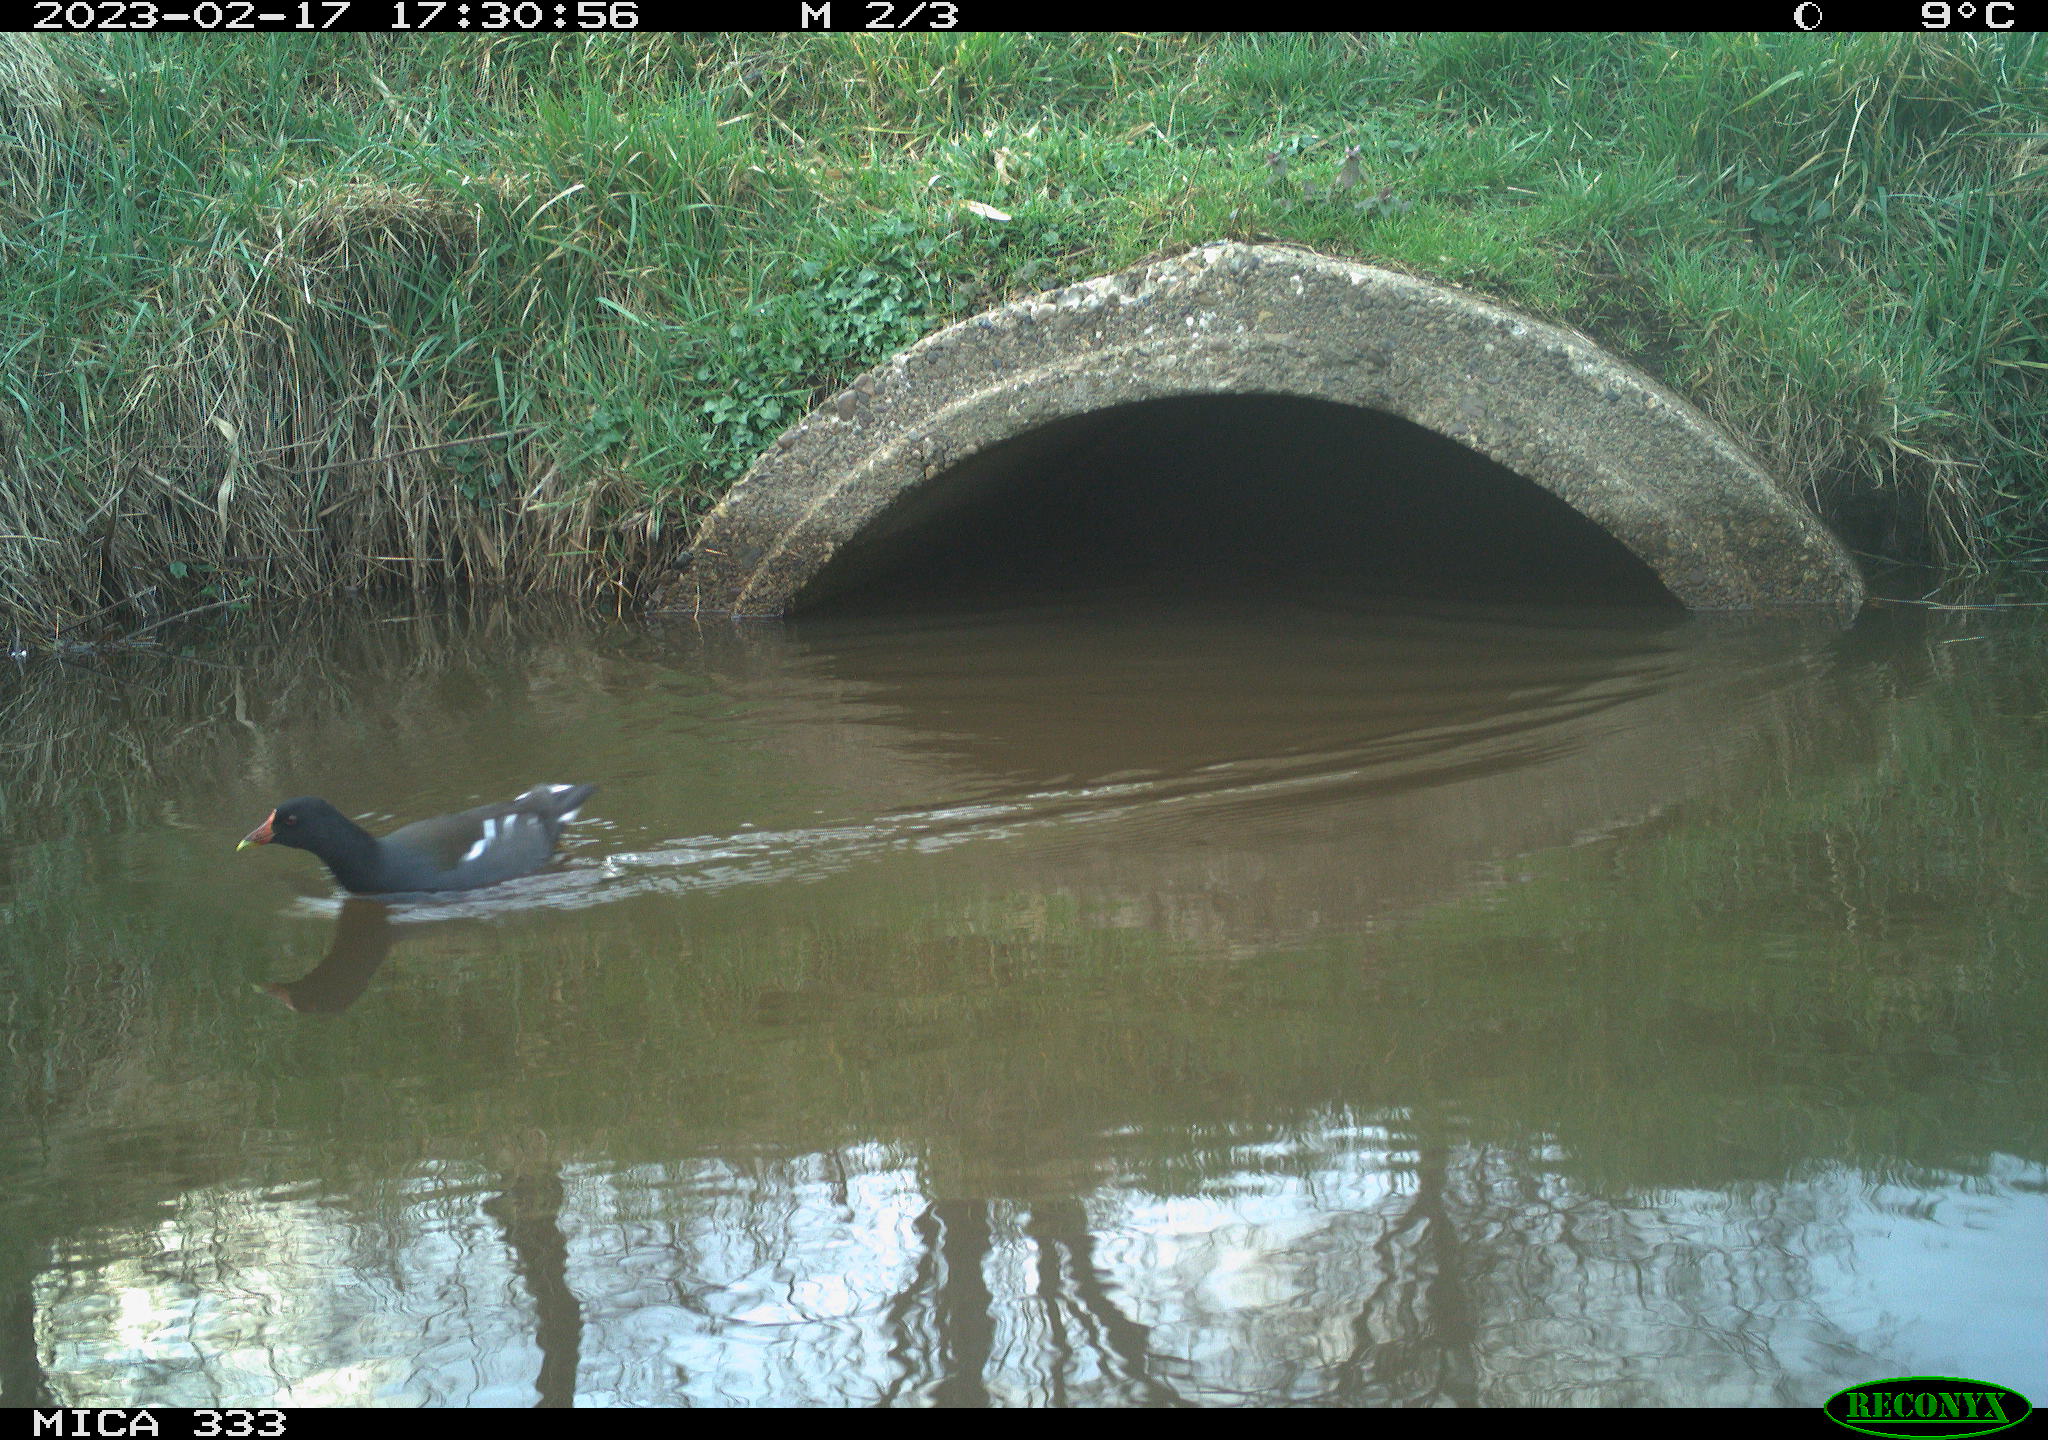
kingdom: Animalia
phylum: Chordata
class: Aves
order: Gruiformes
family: Rallidae
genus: Gallinula
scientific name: Gallinula chloropus
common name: Common moorhen
